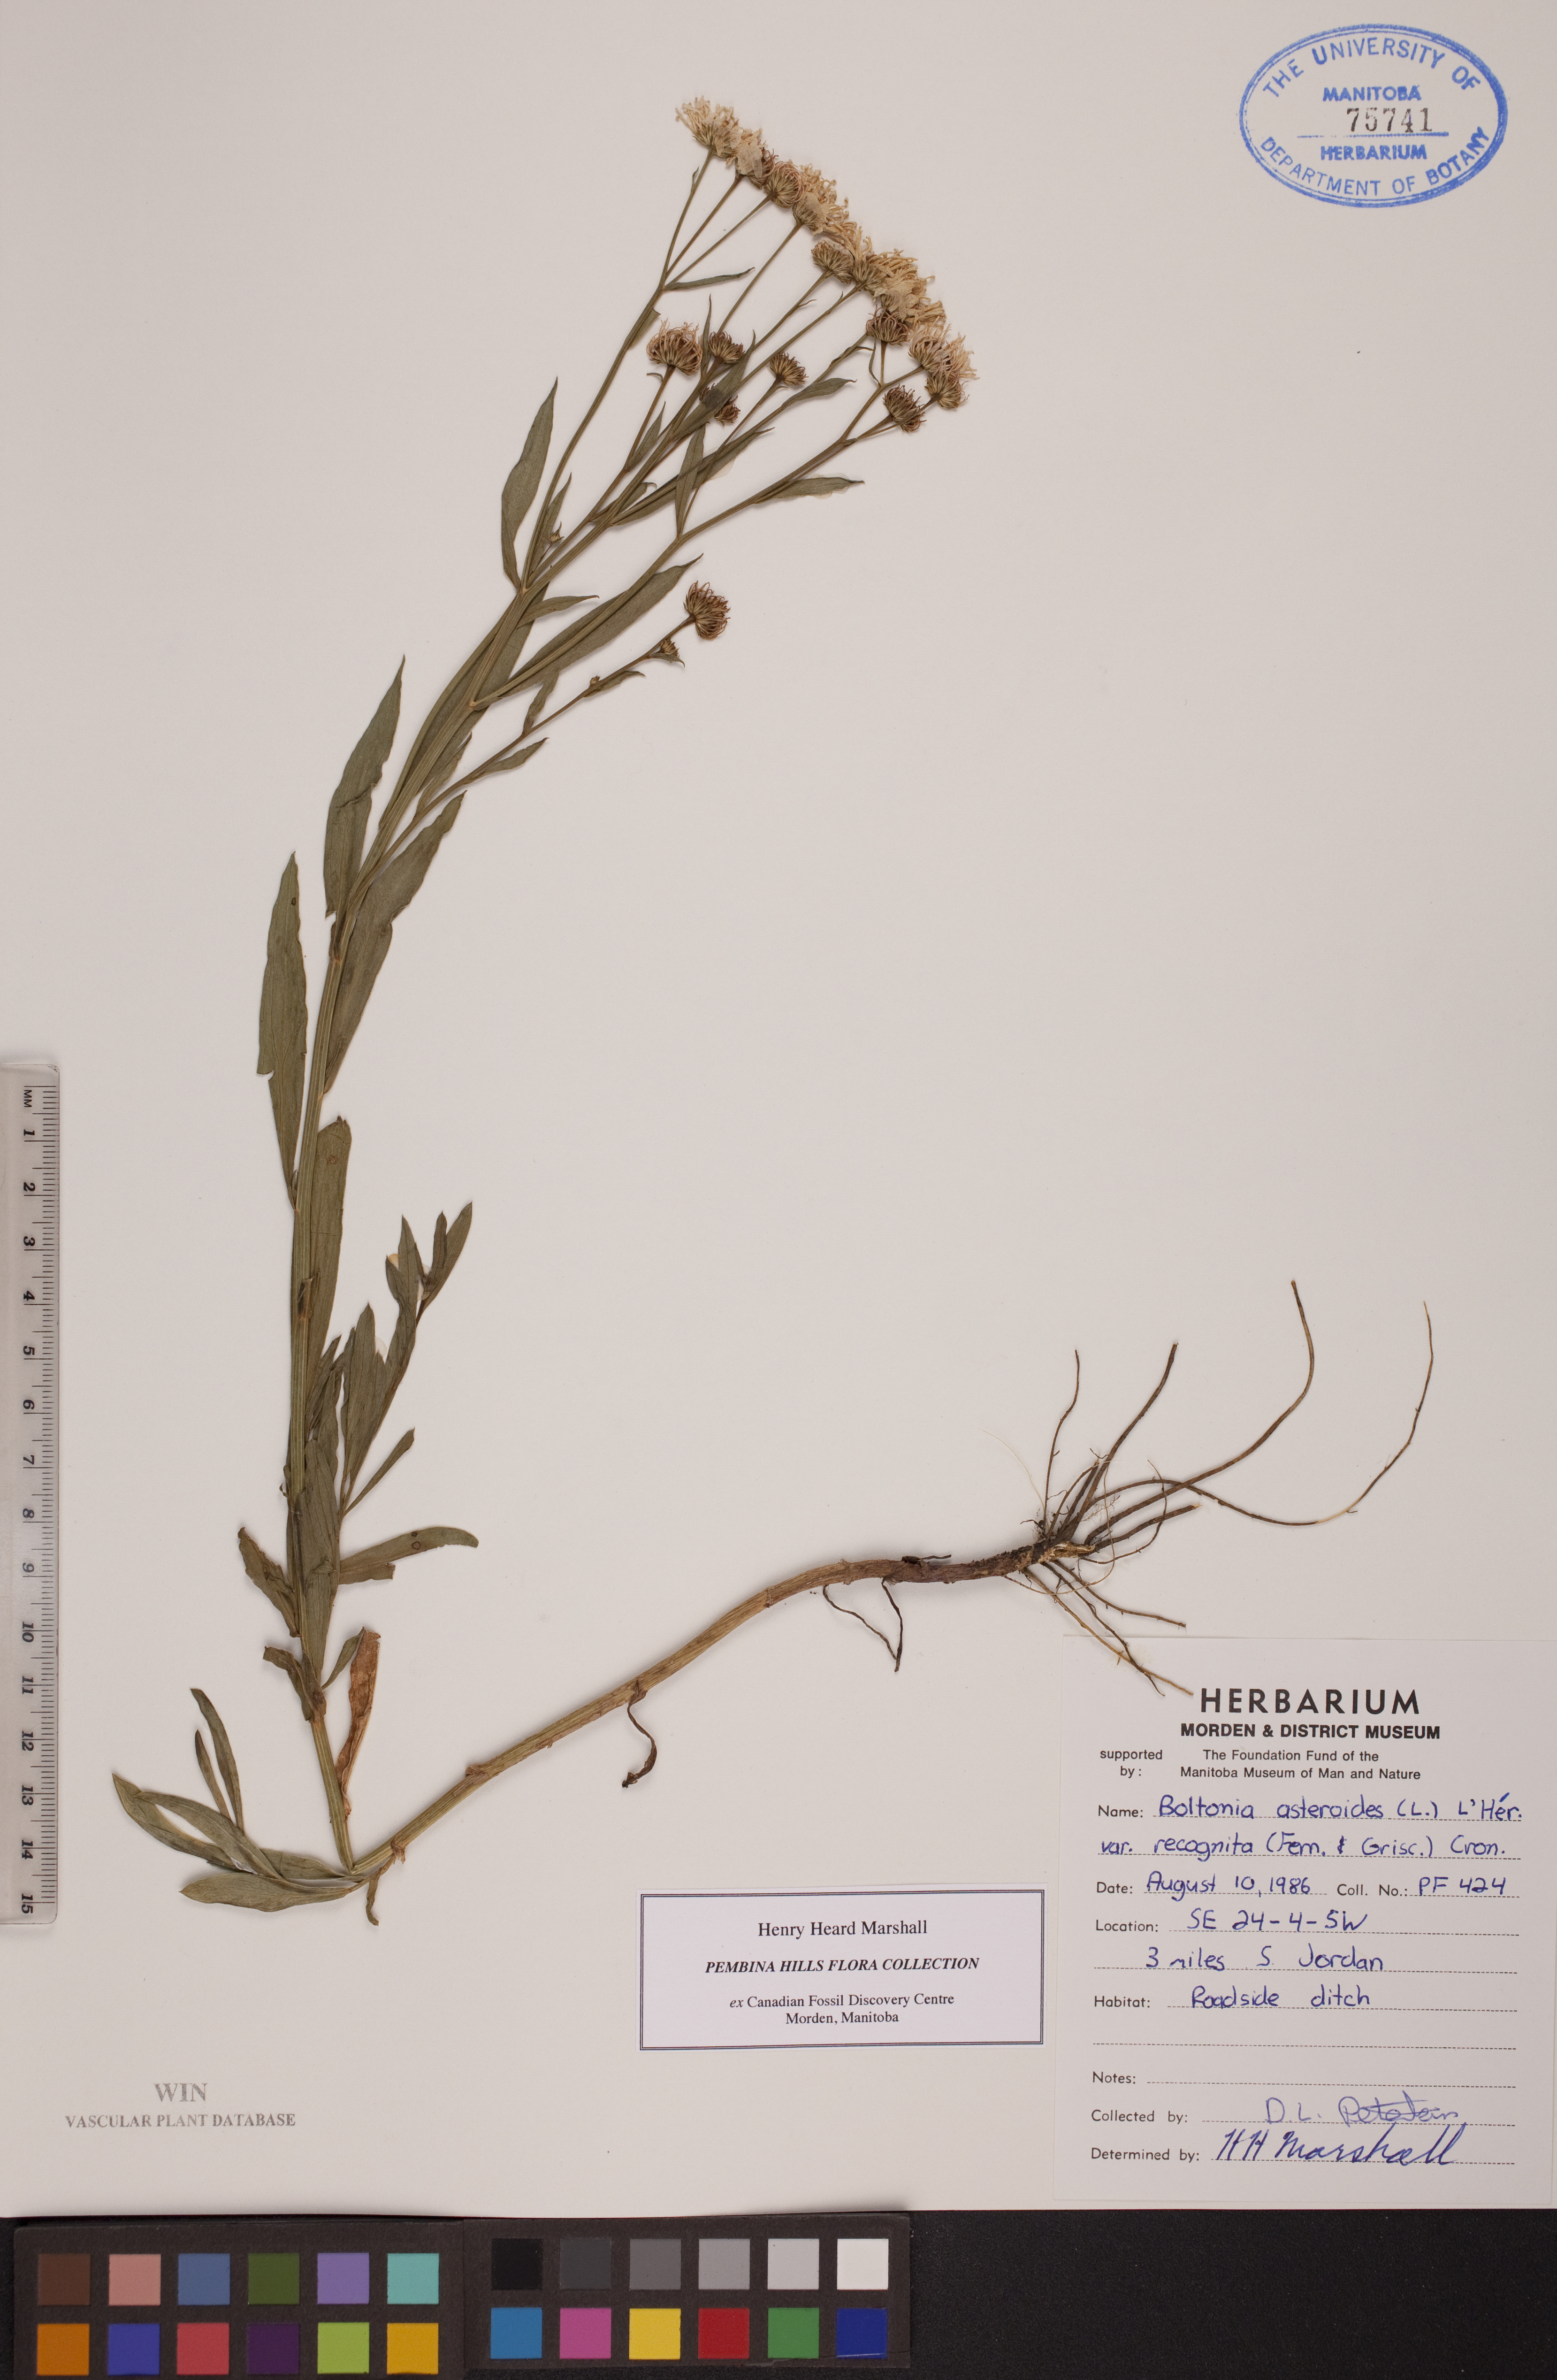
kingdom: Plantae
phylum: Tracheophyta
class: Magnoliopsida
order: Asterales
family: Asteraceae
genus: Boltonia
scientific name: Boltonia asteroides
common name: False chamomile
